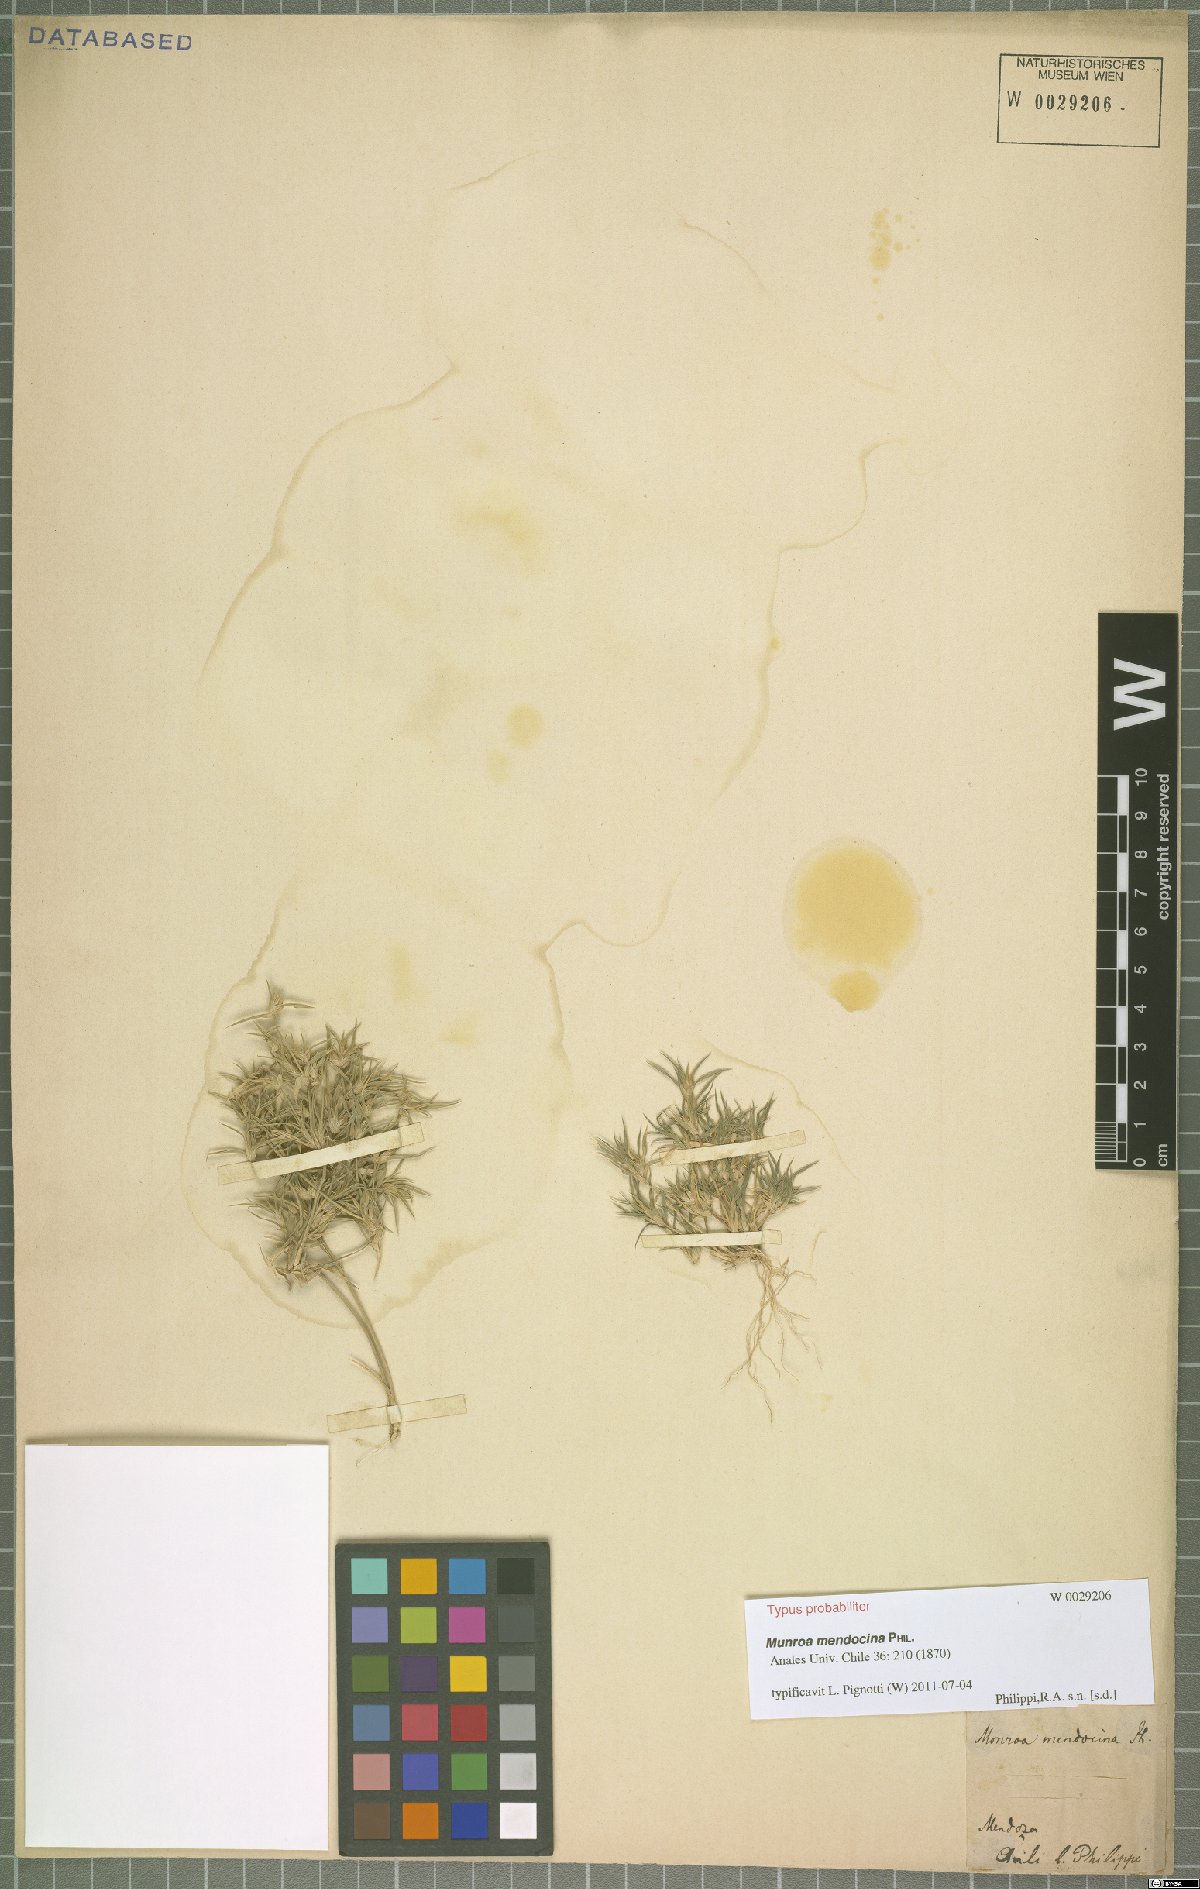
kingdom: Plantae
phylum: Tracheophyta
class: Liliopsida
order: Poales
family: Poaceae
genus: Munroa
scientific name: Munroa mendocina
